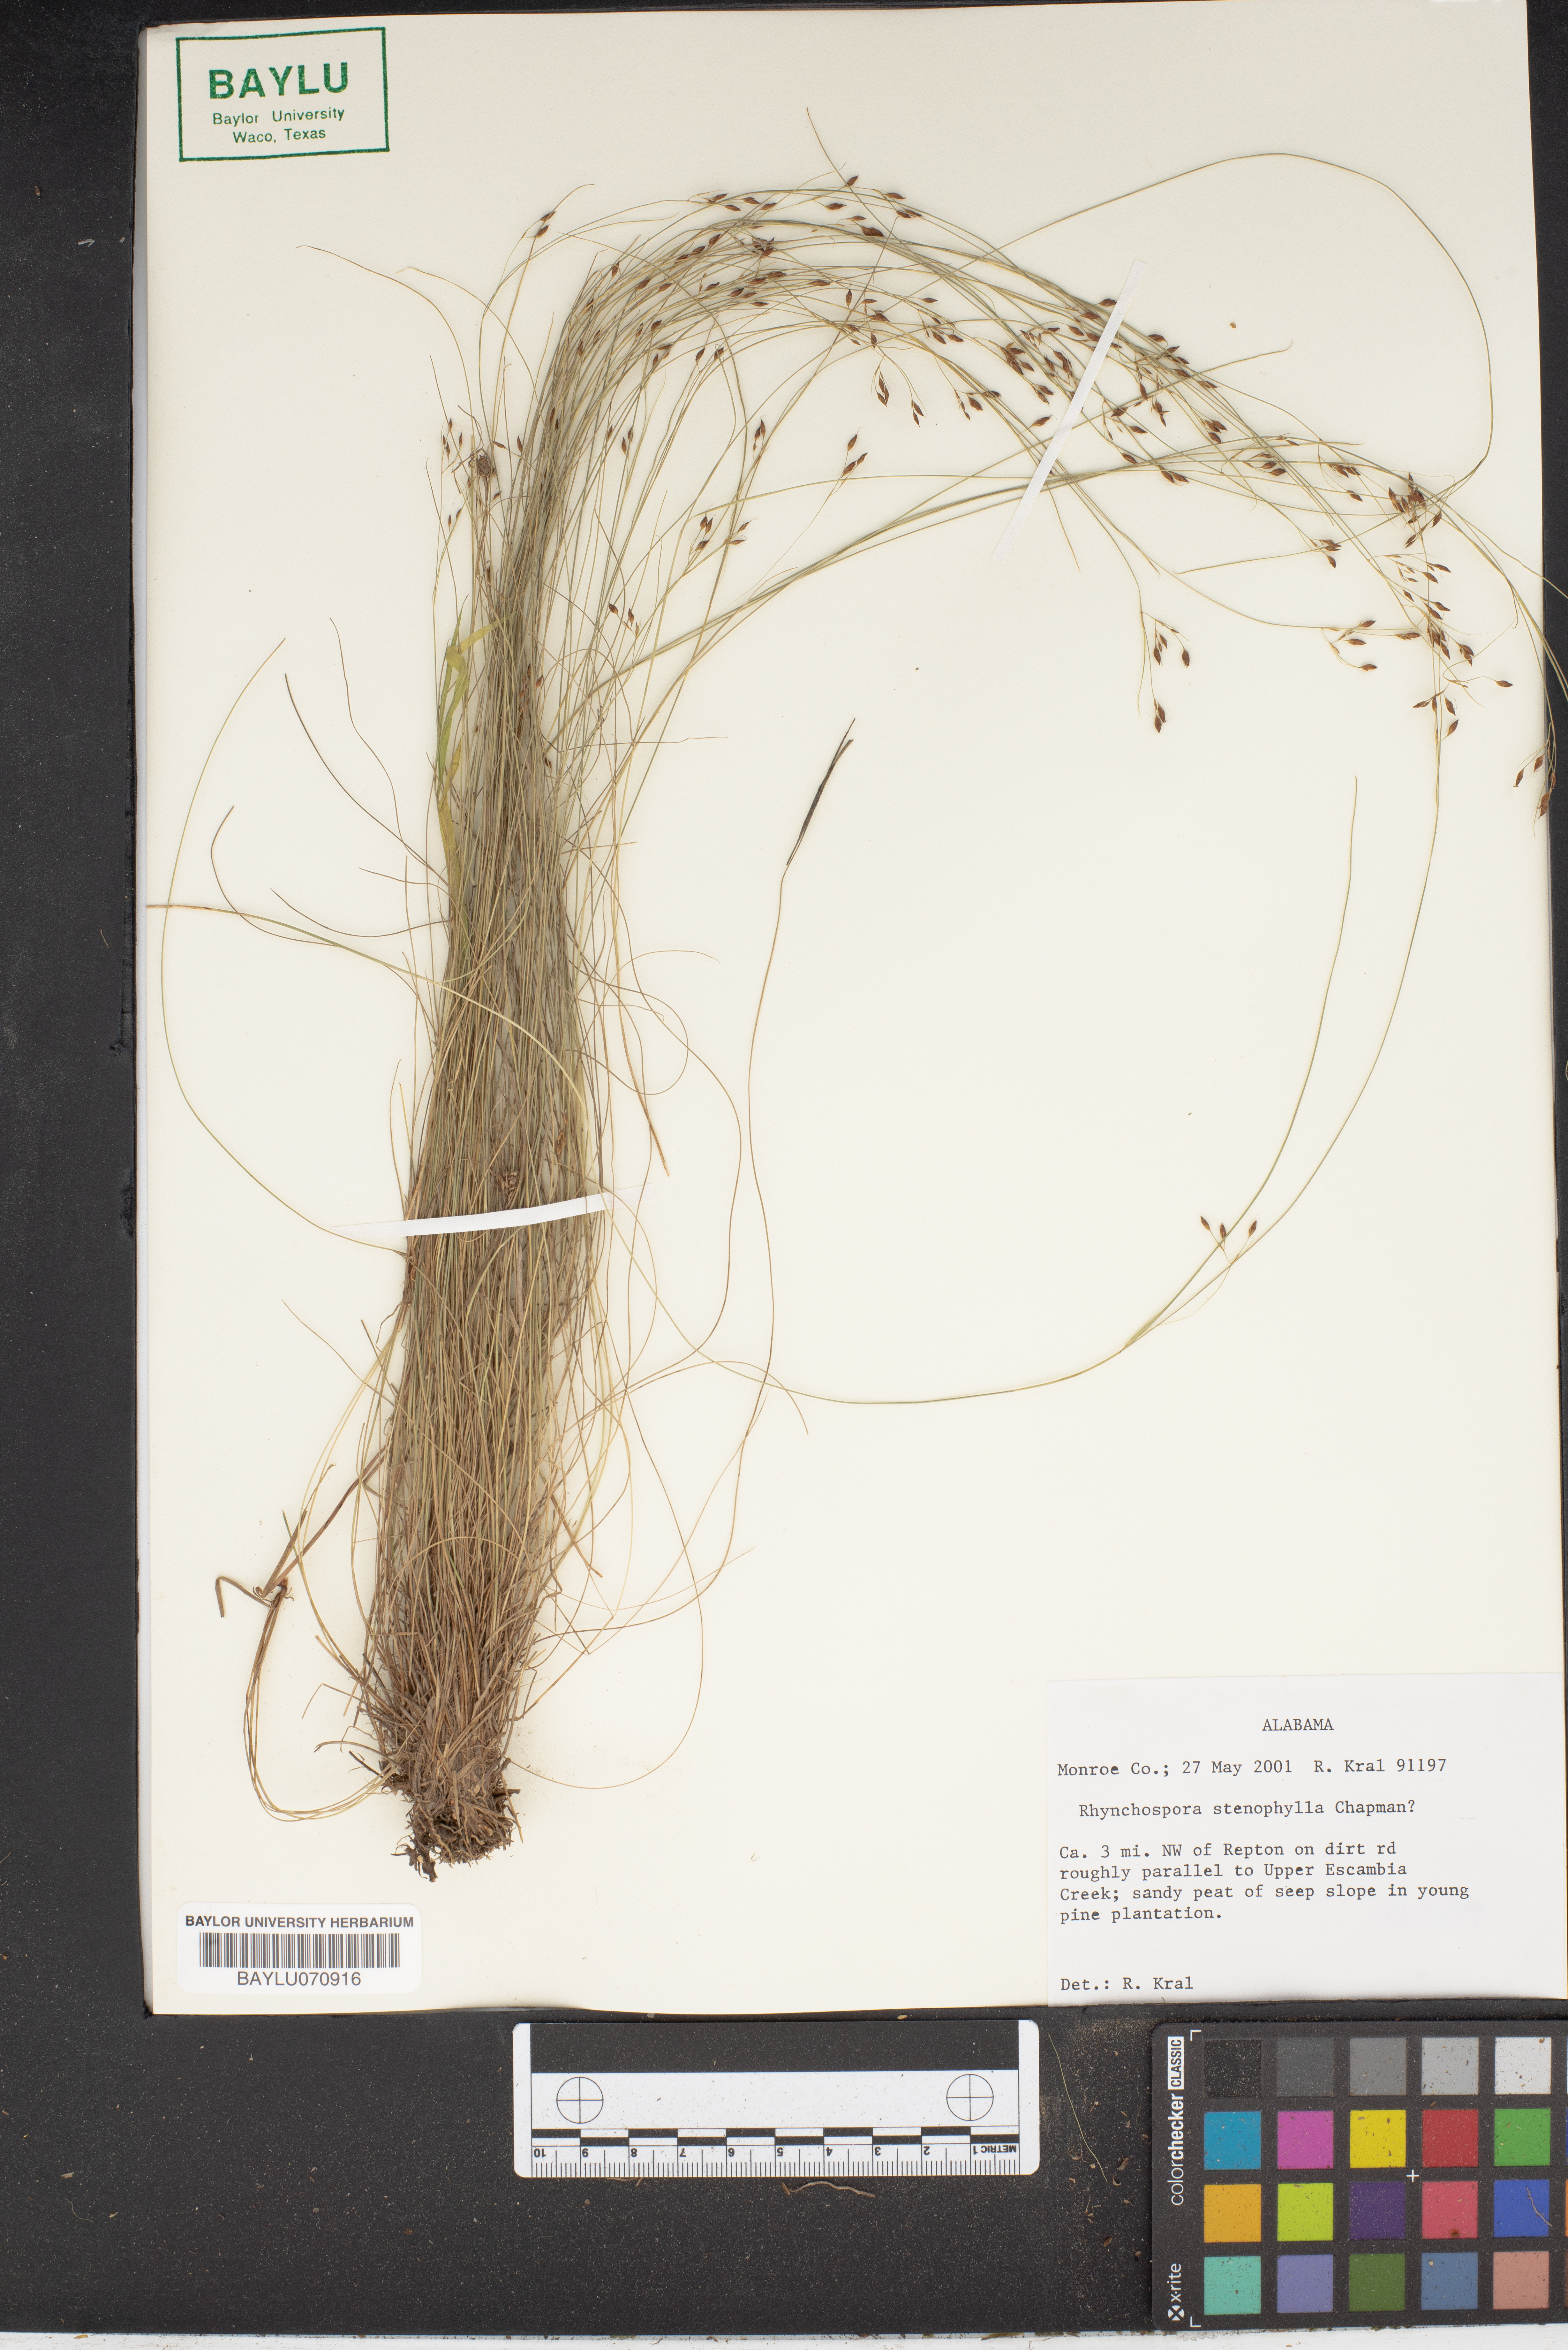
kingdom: Plantae
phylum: Tracheophyta
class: Liliopsida
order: Poales
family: Cyperaceae
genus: Rhynchospora
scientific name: Rhynchospora stenophylla
